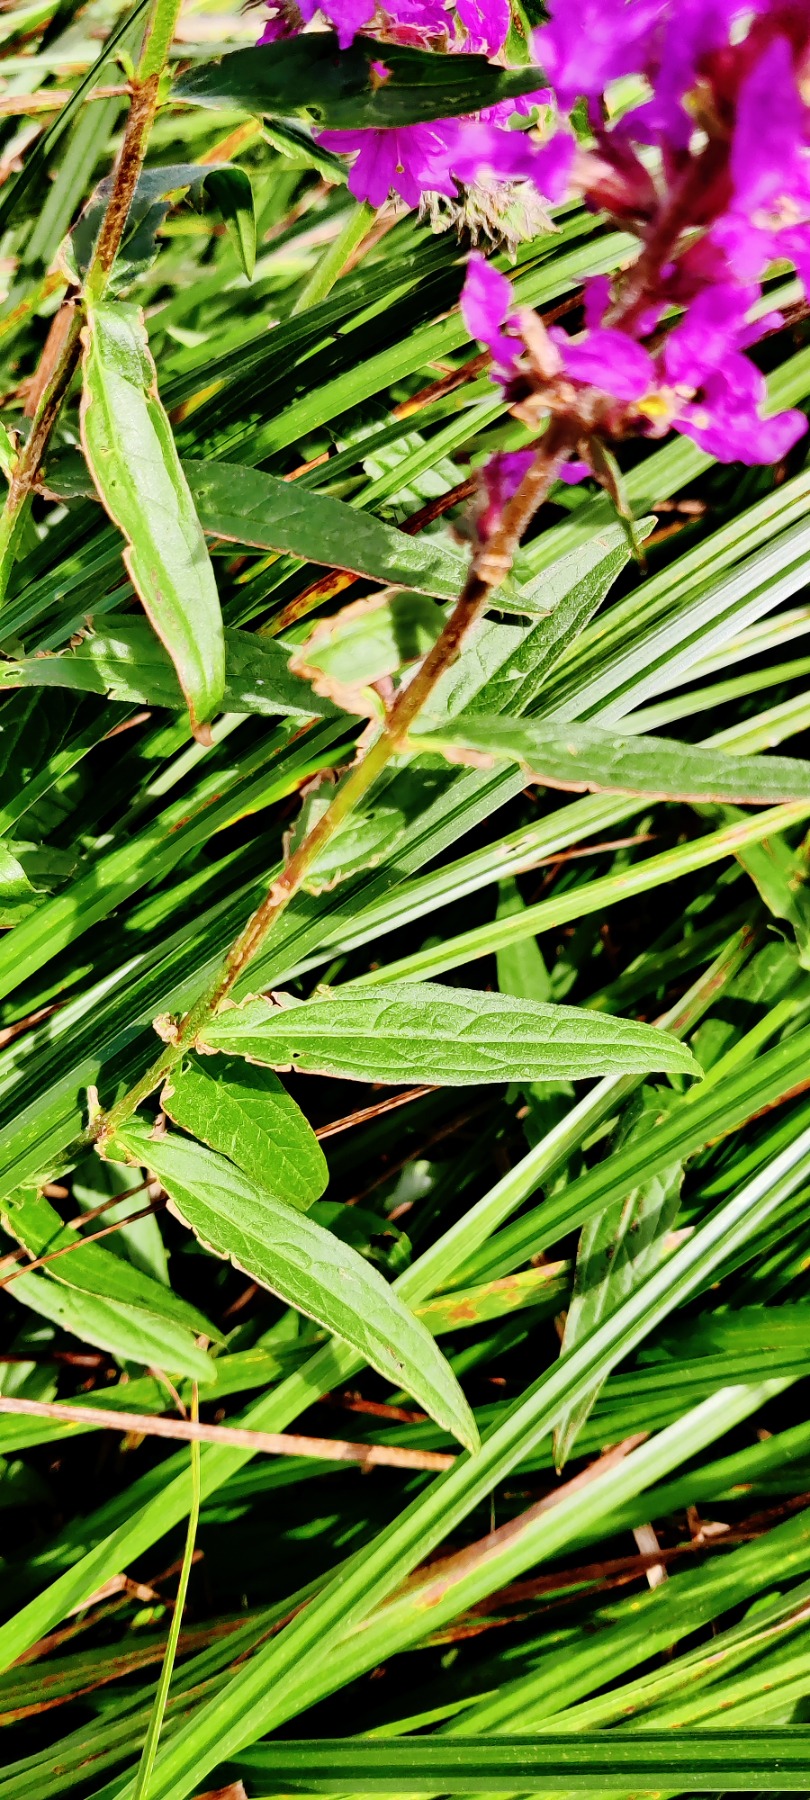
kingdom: Plantae
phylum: Tracheophyta
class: Magnoliopsida
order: Myrtales
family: Lythraceae
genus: Lythrum
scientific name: Lythrum salicaria
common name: Kattehale
